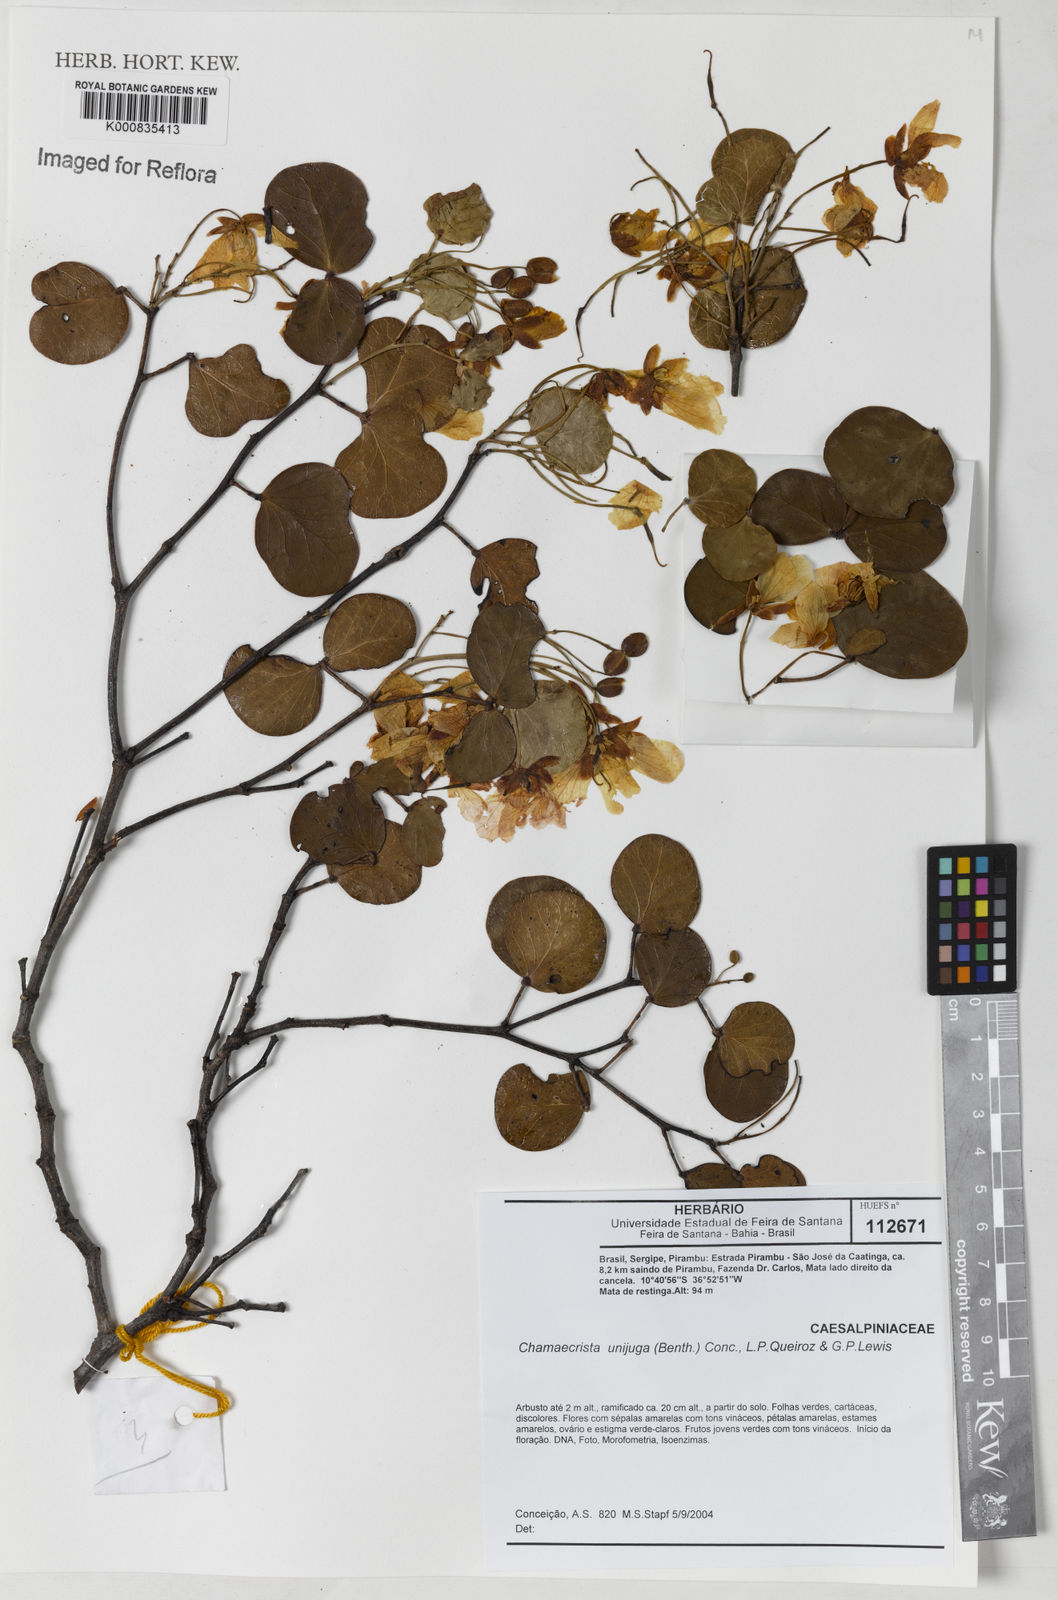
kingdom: Plantae
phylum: Tracheophyta
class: Magnoliopsida
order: Fabales
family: Fabaceae
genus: Chamaecrista
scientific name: Chamaecrista unijuga
